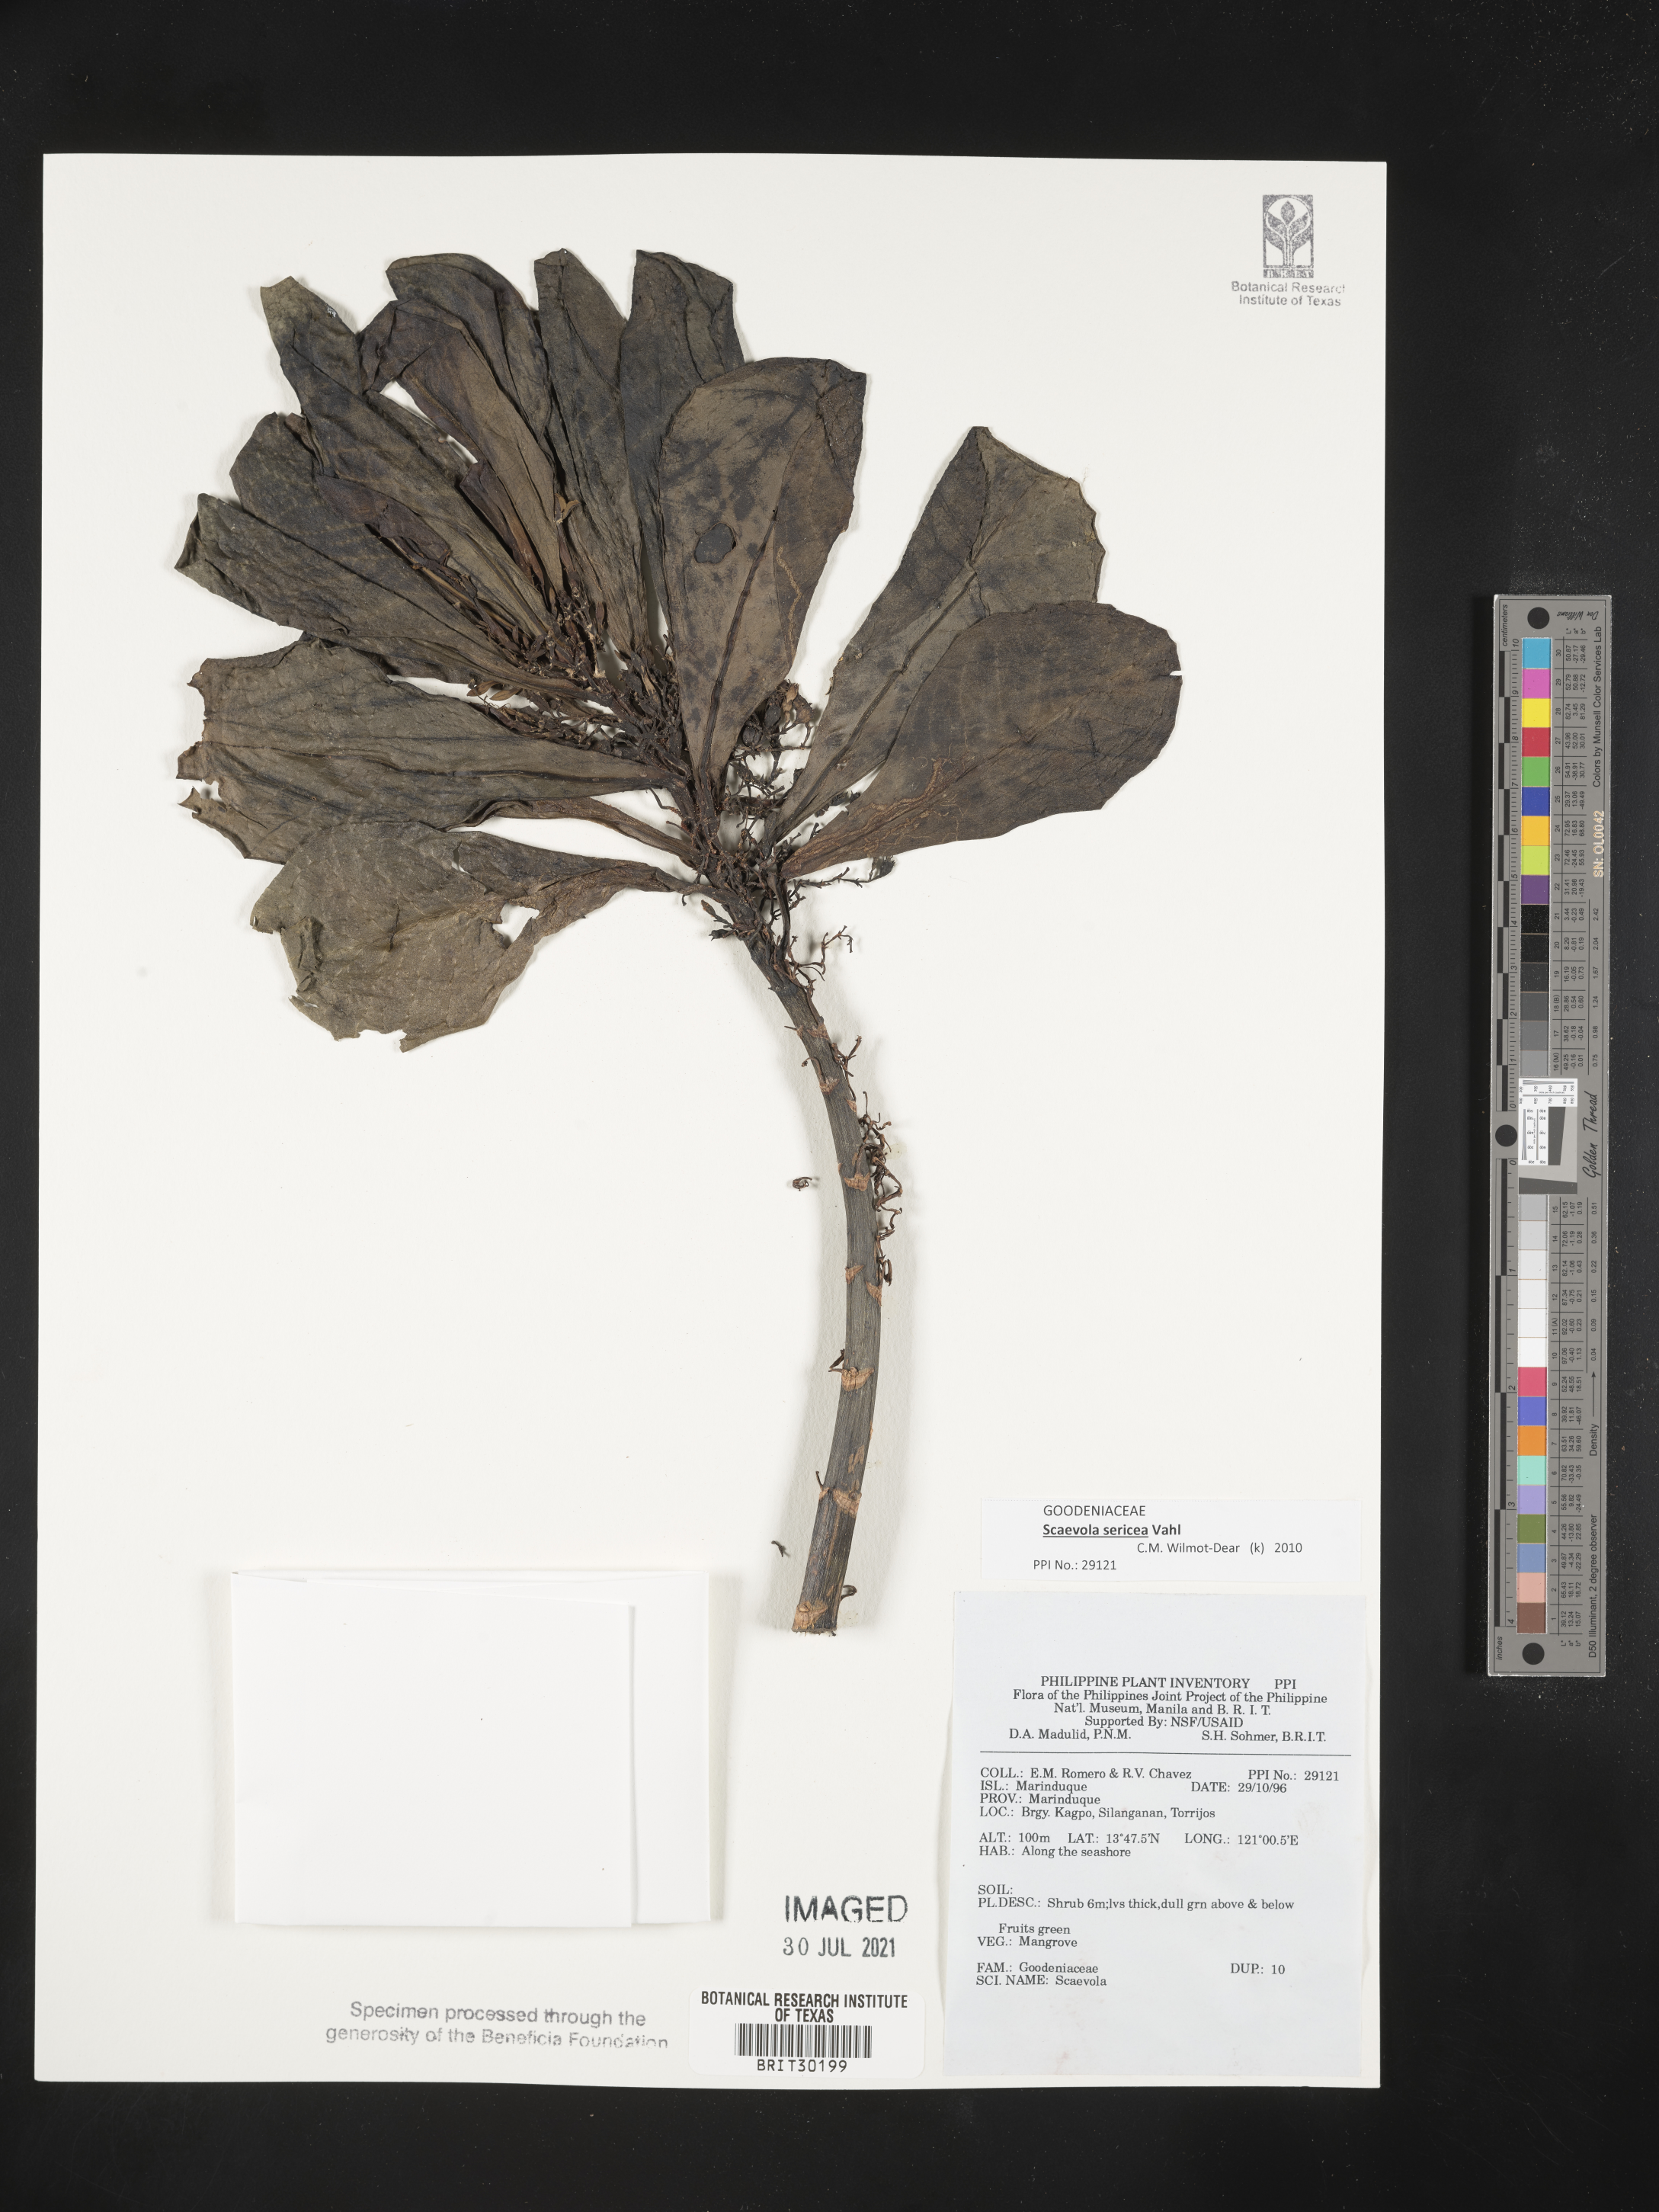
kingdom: Plantae
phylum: Tracheophyta
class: Magnoliopsida
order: Asterales
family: Goodeniaceae
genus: Scaevola
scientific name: Scaevola
